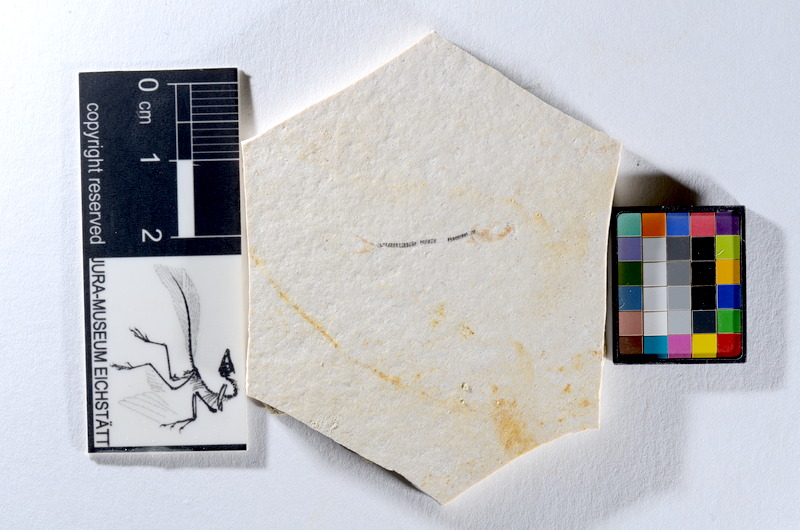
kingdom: Animalia
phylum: Chordata
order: Salmoniformes
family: Orthogonikleithridae
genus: Orthogonikleithrus
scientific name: Orthogonikleithrus hoelli
